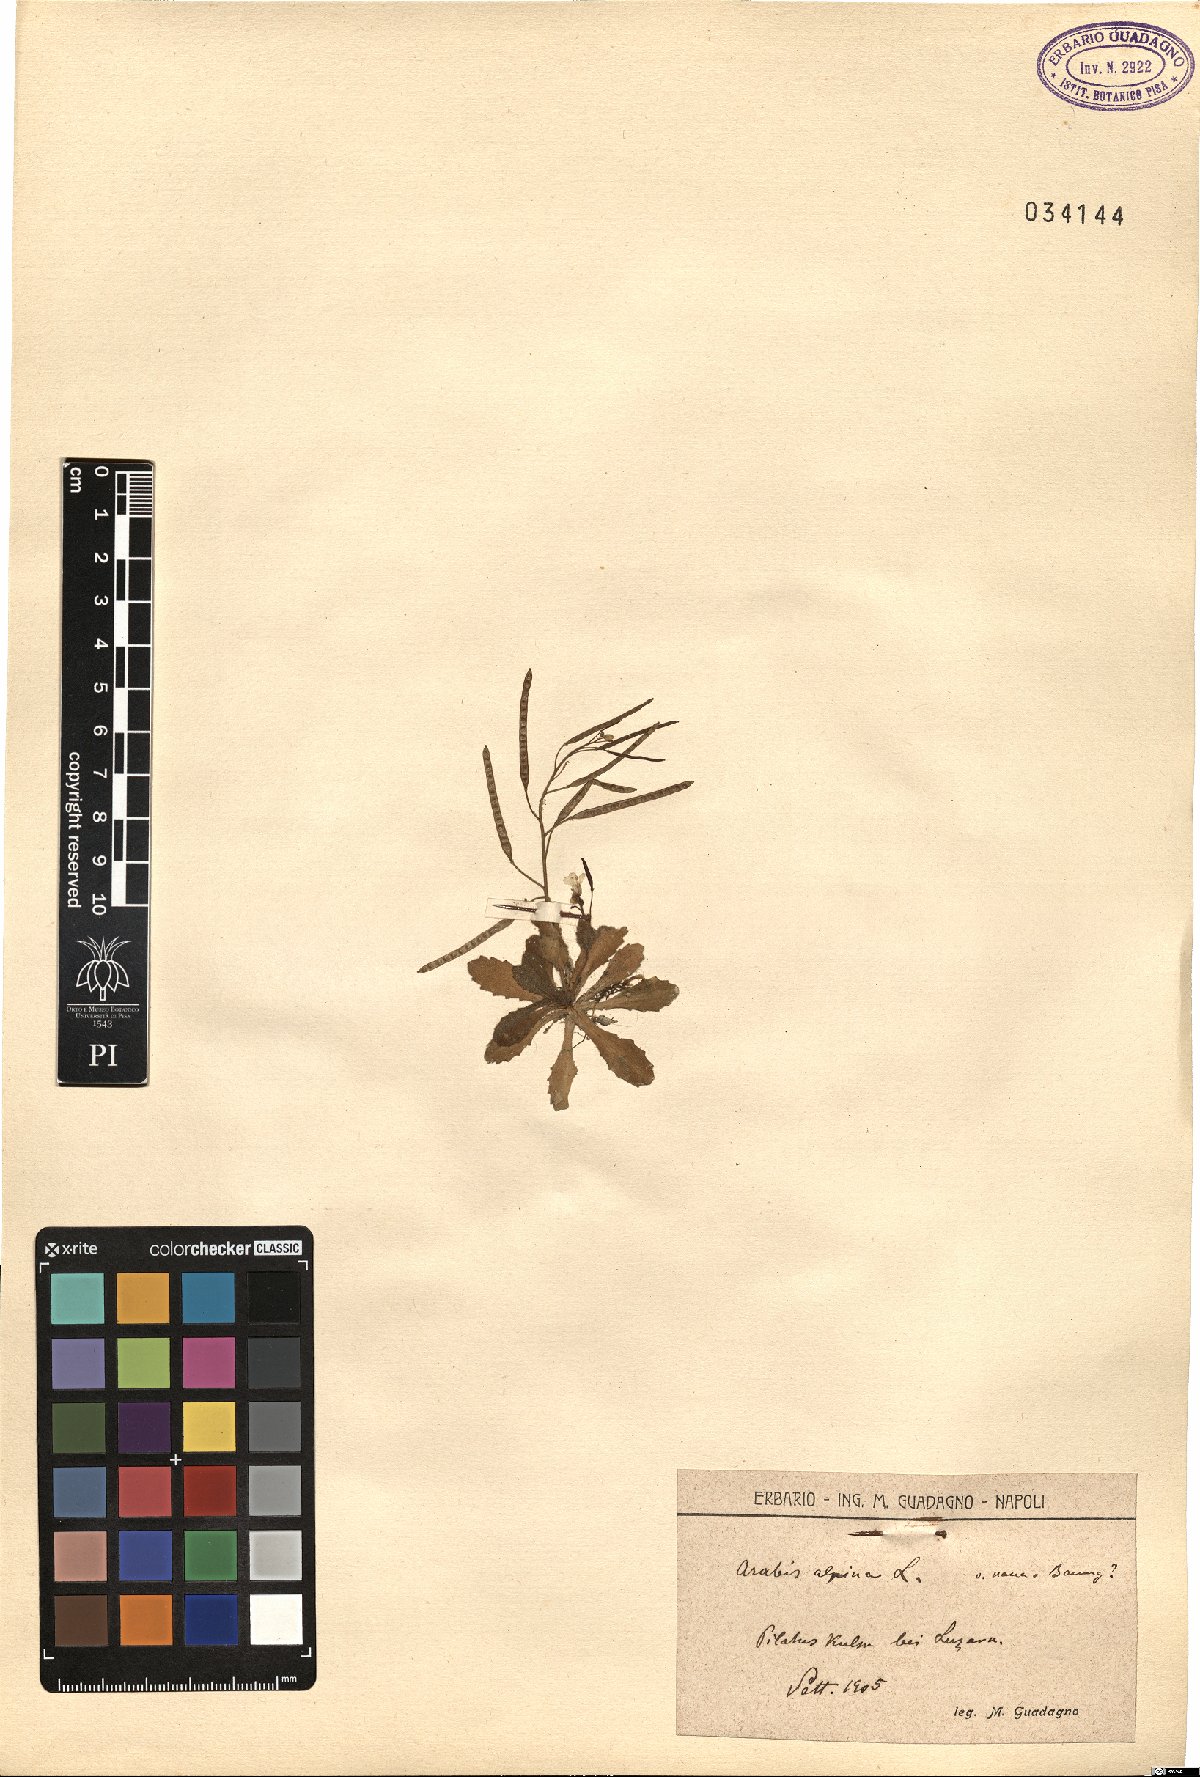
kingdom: Plantae
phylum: Tracheophyta
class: Magnoliopsida
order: Brassicales
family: Brassicaceae
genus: Arabis
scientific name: Arabis alpina
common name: Alpine rock-cress
